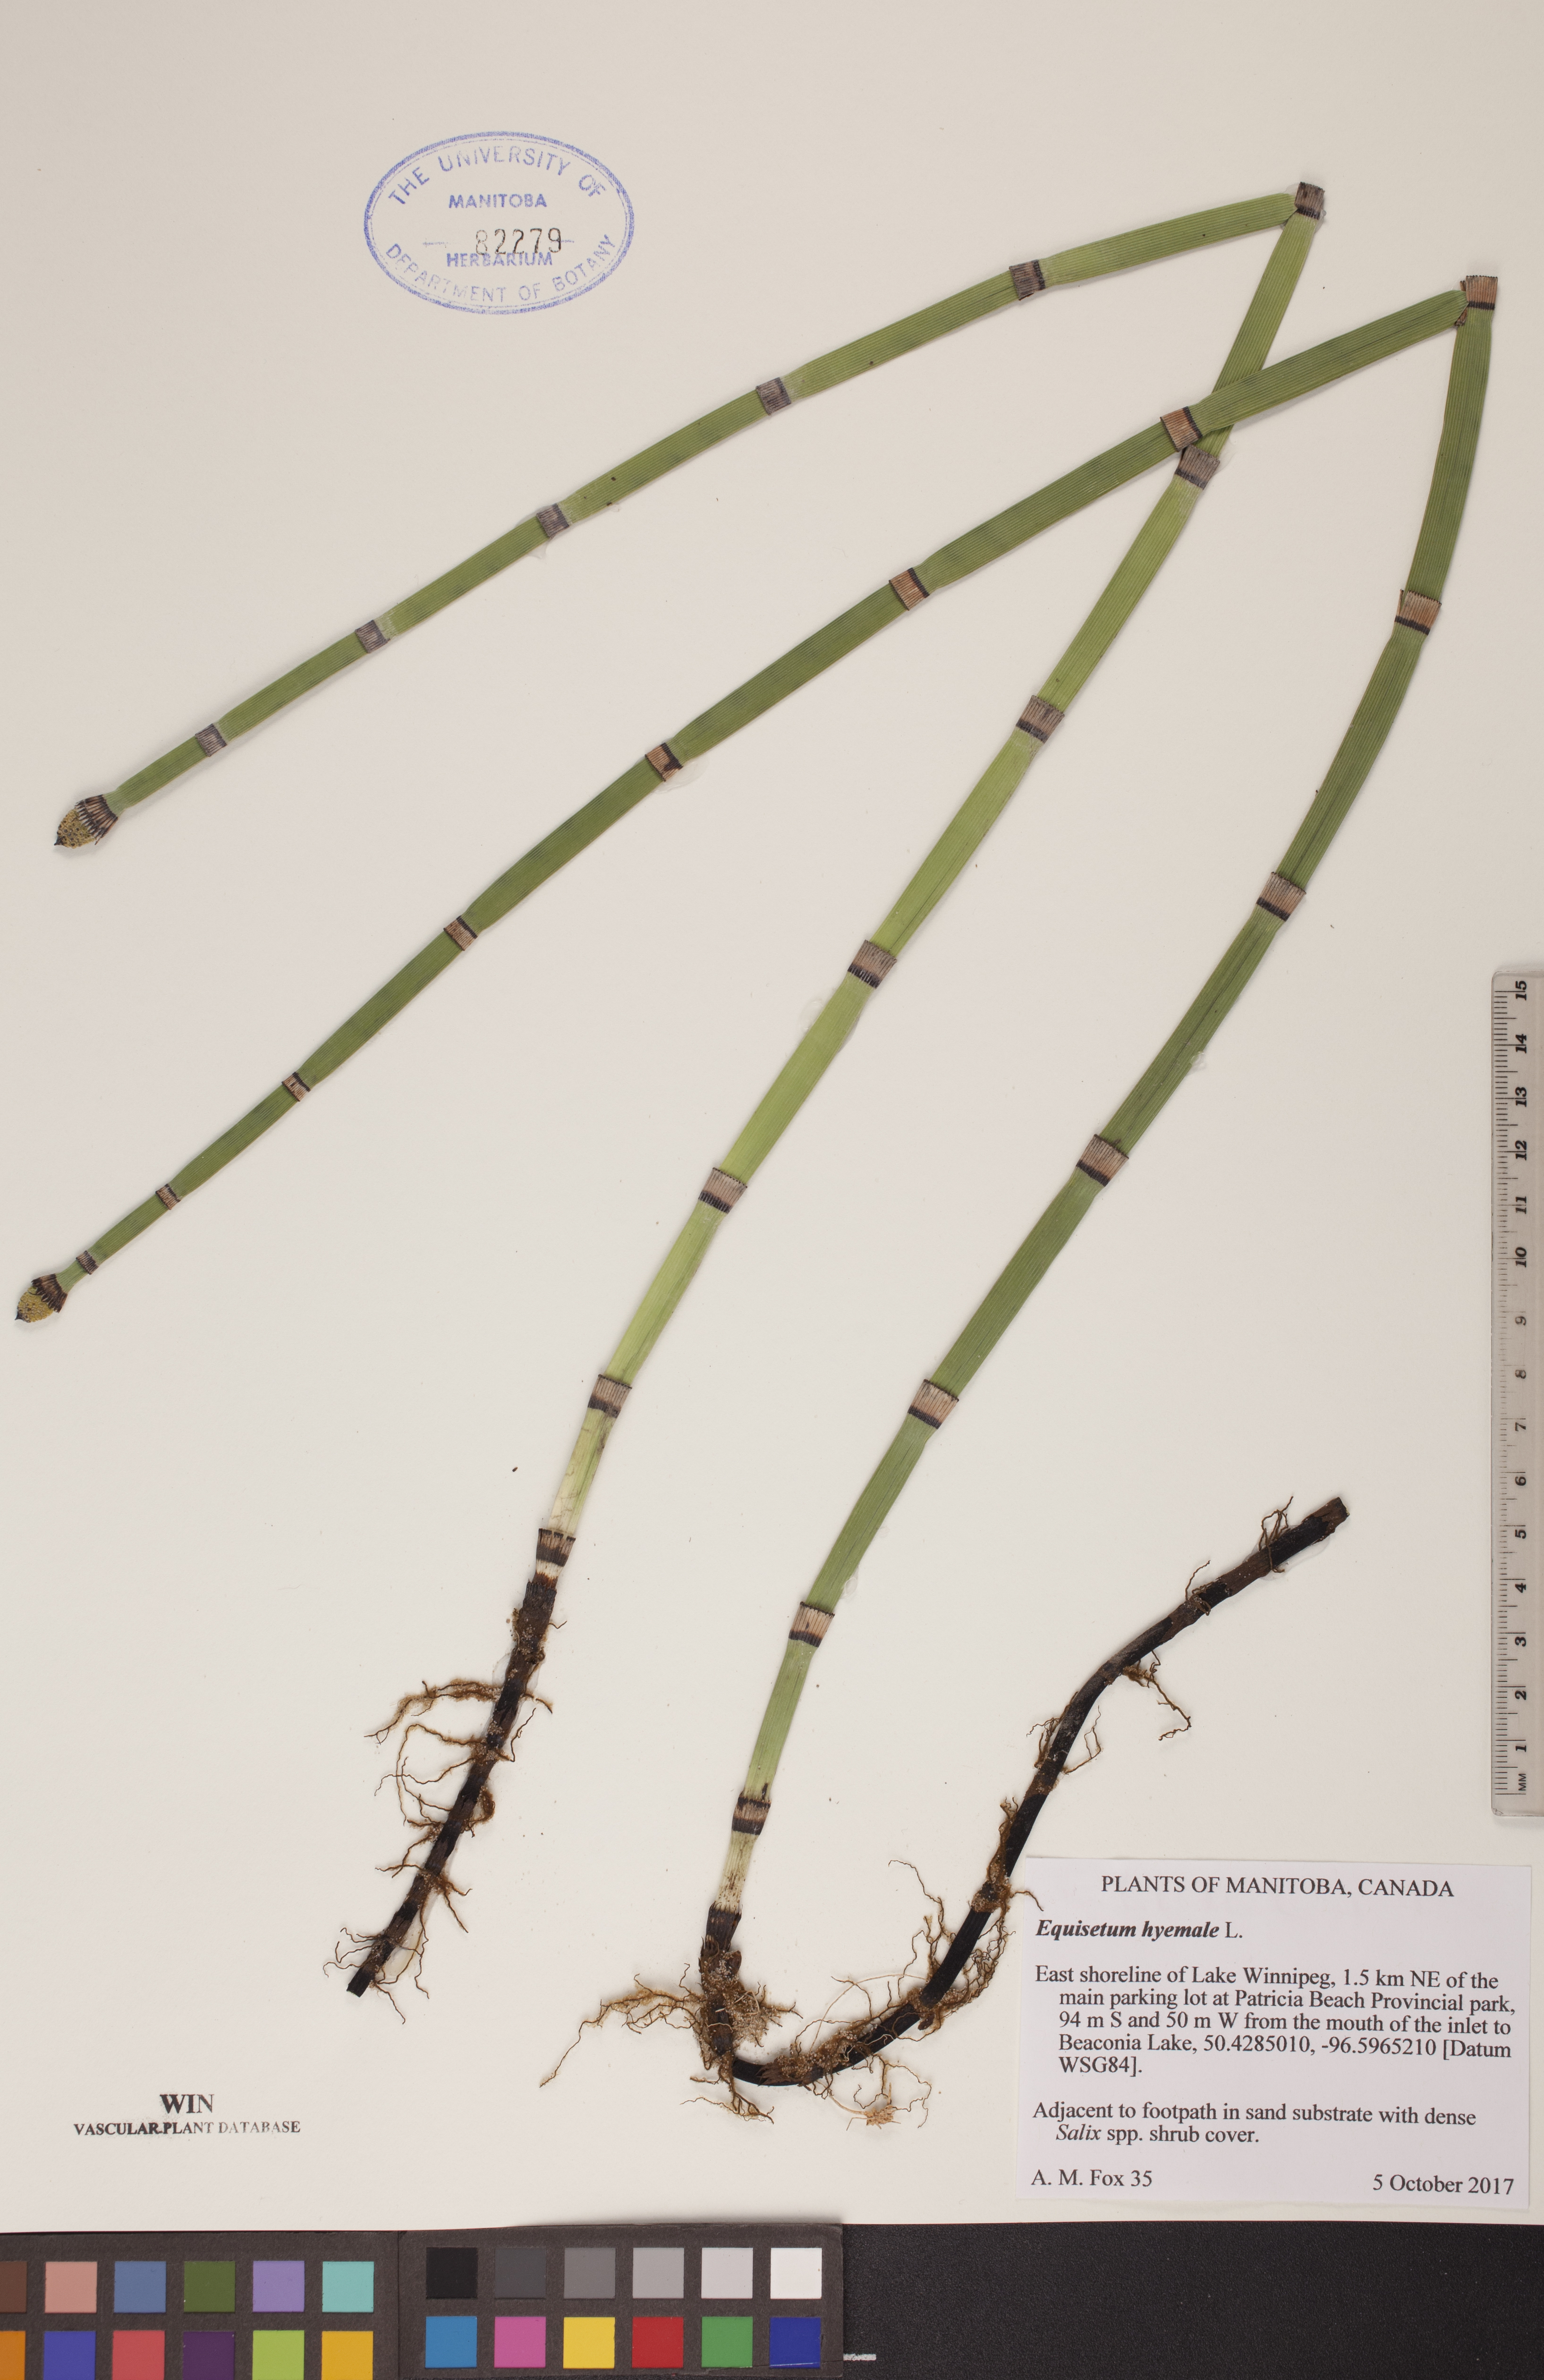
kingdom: Plantae
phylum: Tracheophyta
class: Polypodiopsida
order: Equisetales
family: Equisetaceae
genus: Equisetum
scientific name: Equisetum hyemale
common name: Rough horsetail
